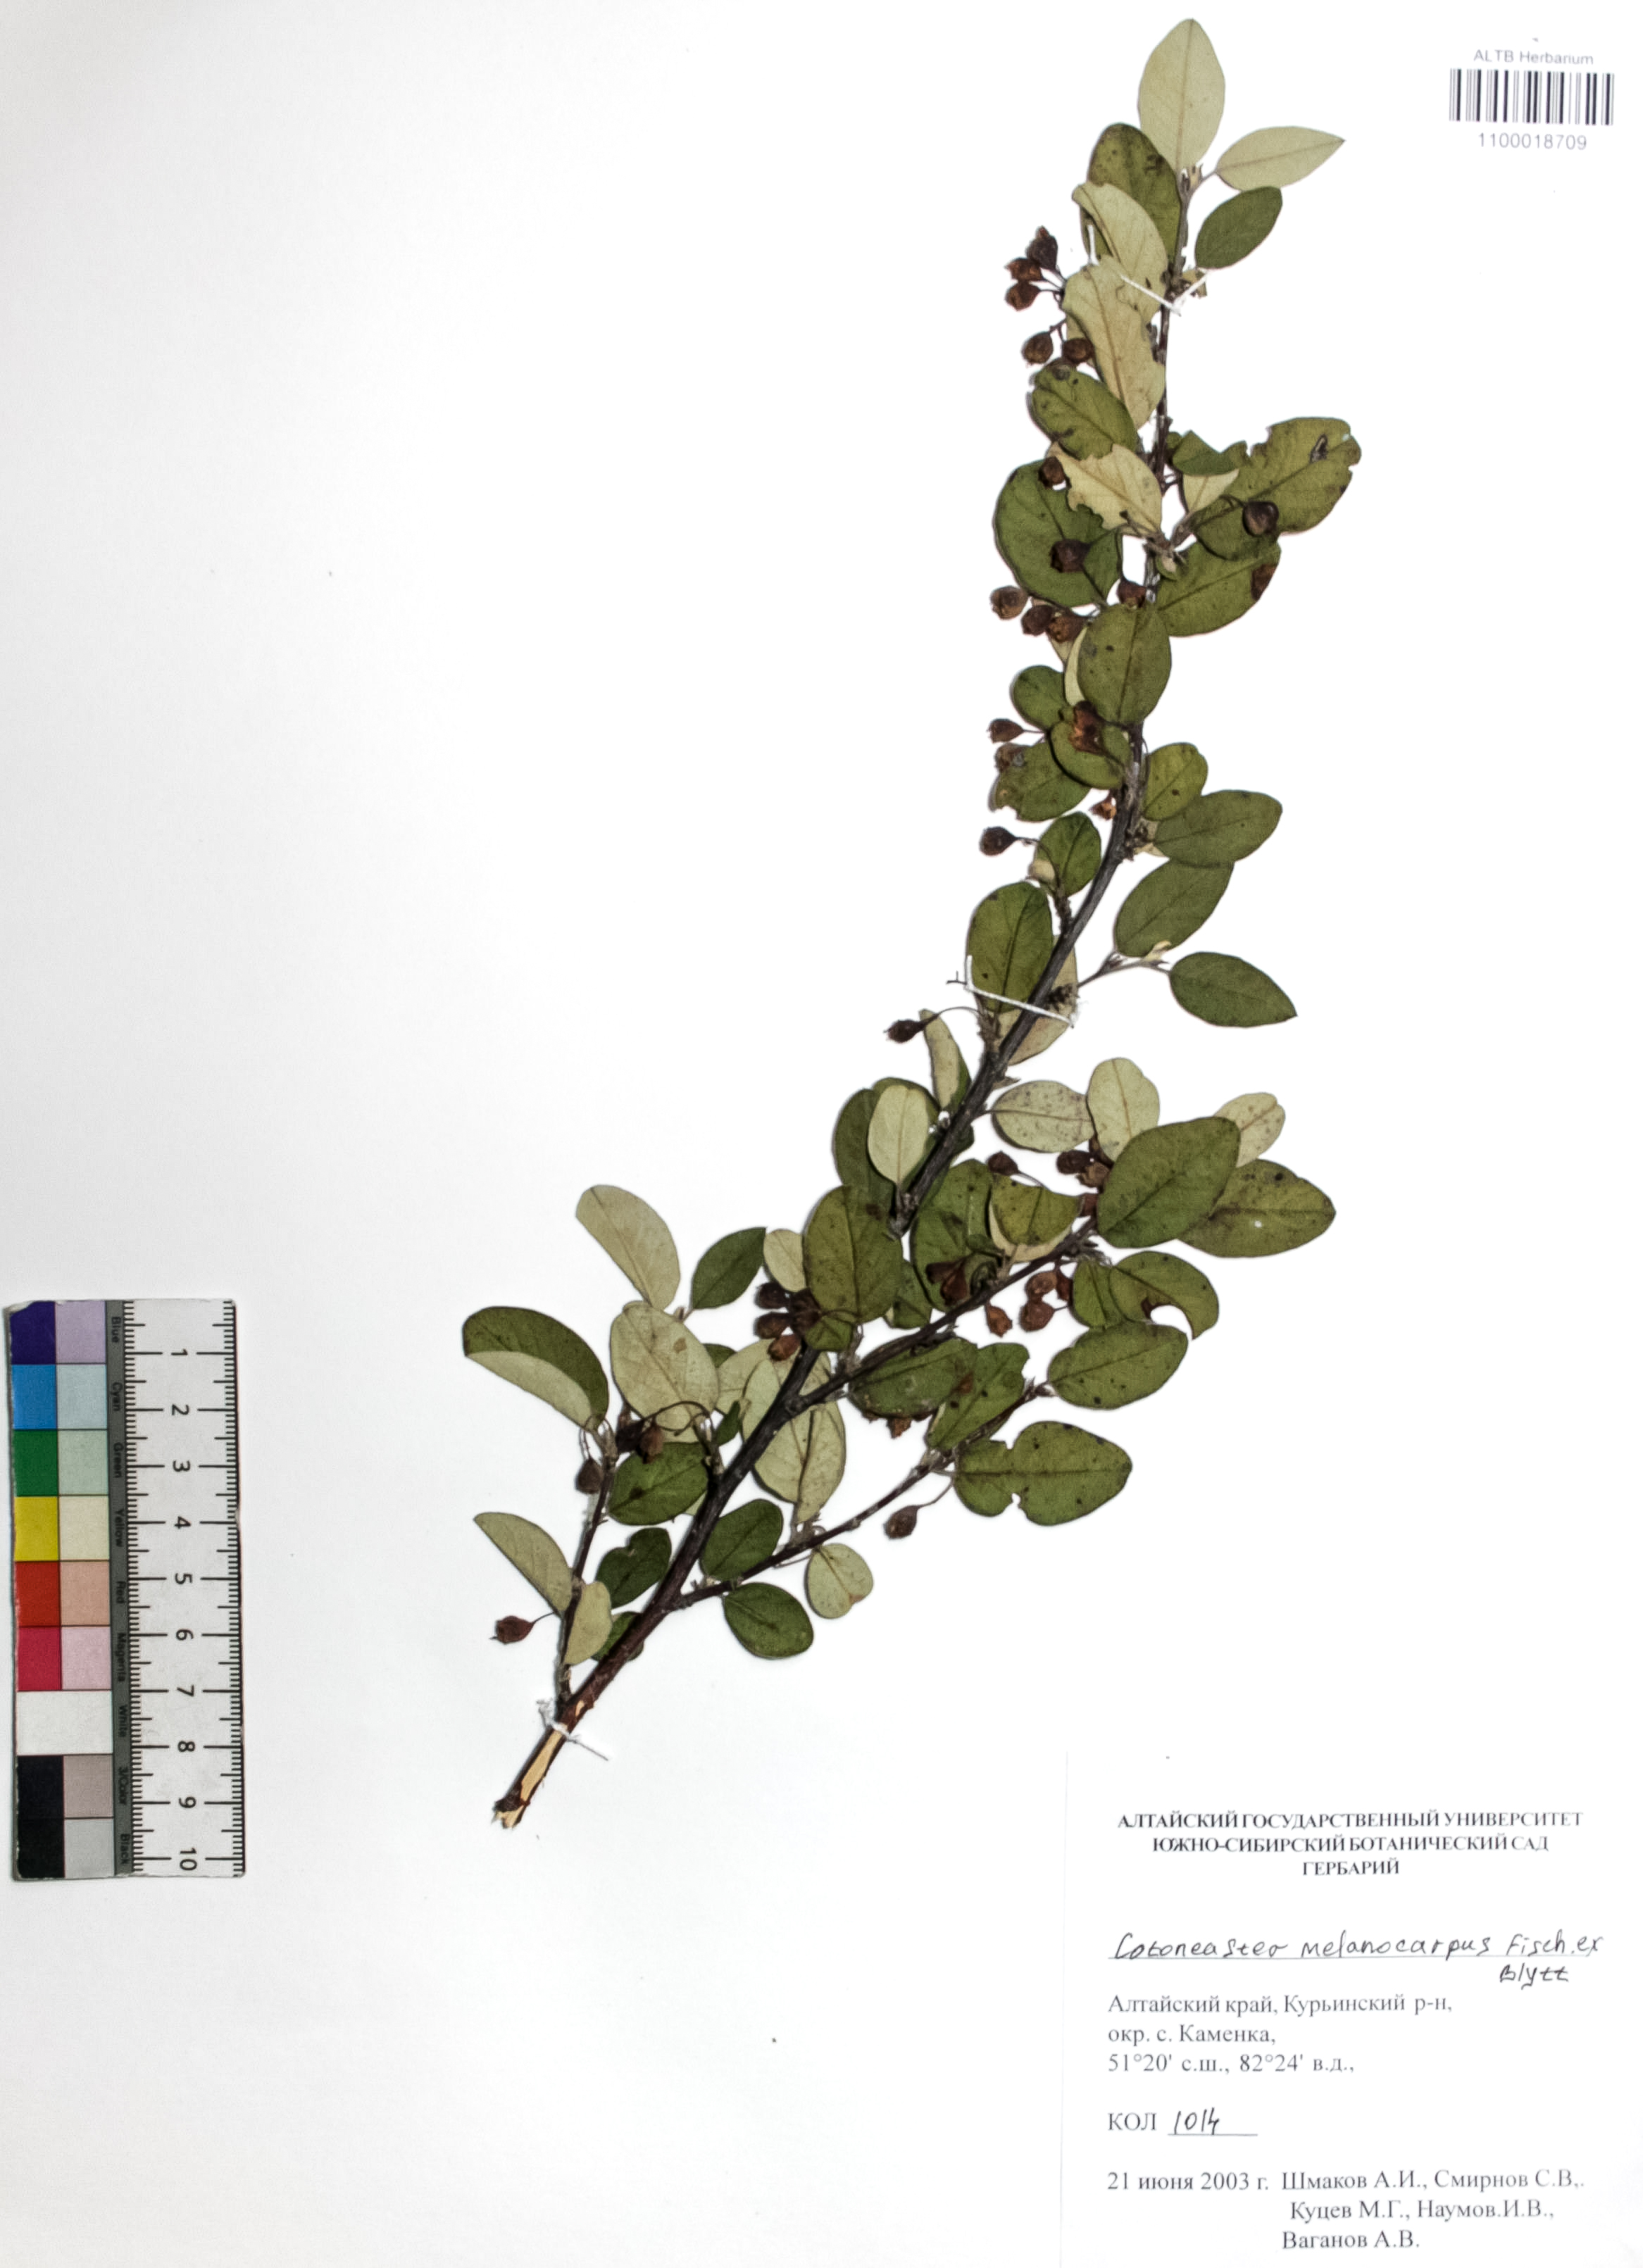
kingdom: Plantae
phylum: Tracheophyta
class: Magnoliopsida
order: Rosales
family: Rosaceae
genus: Cotoneaster
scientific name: Cotoneaster niger
